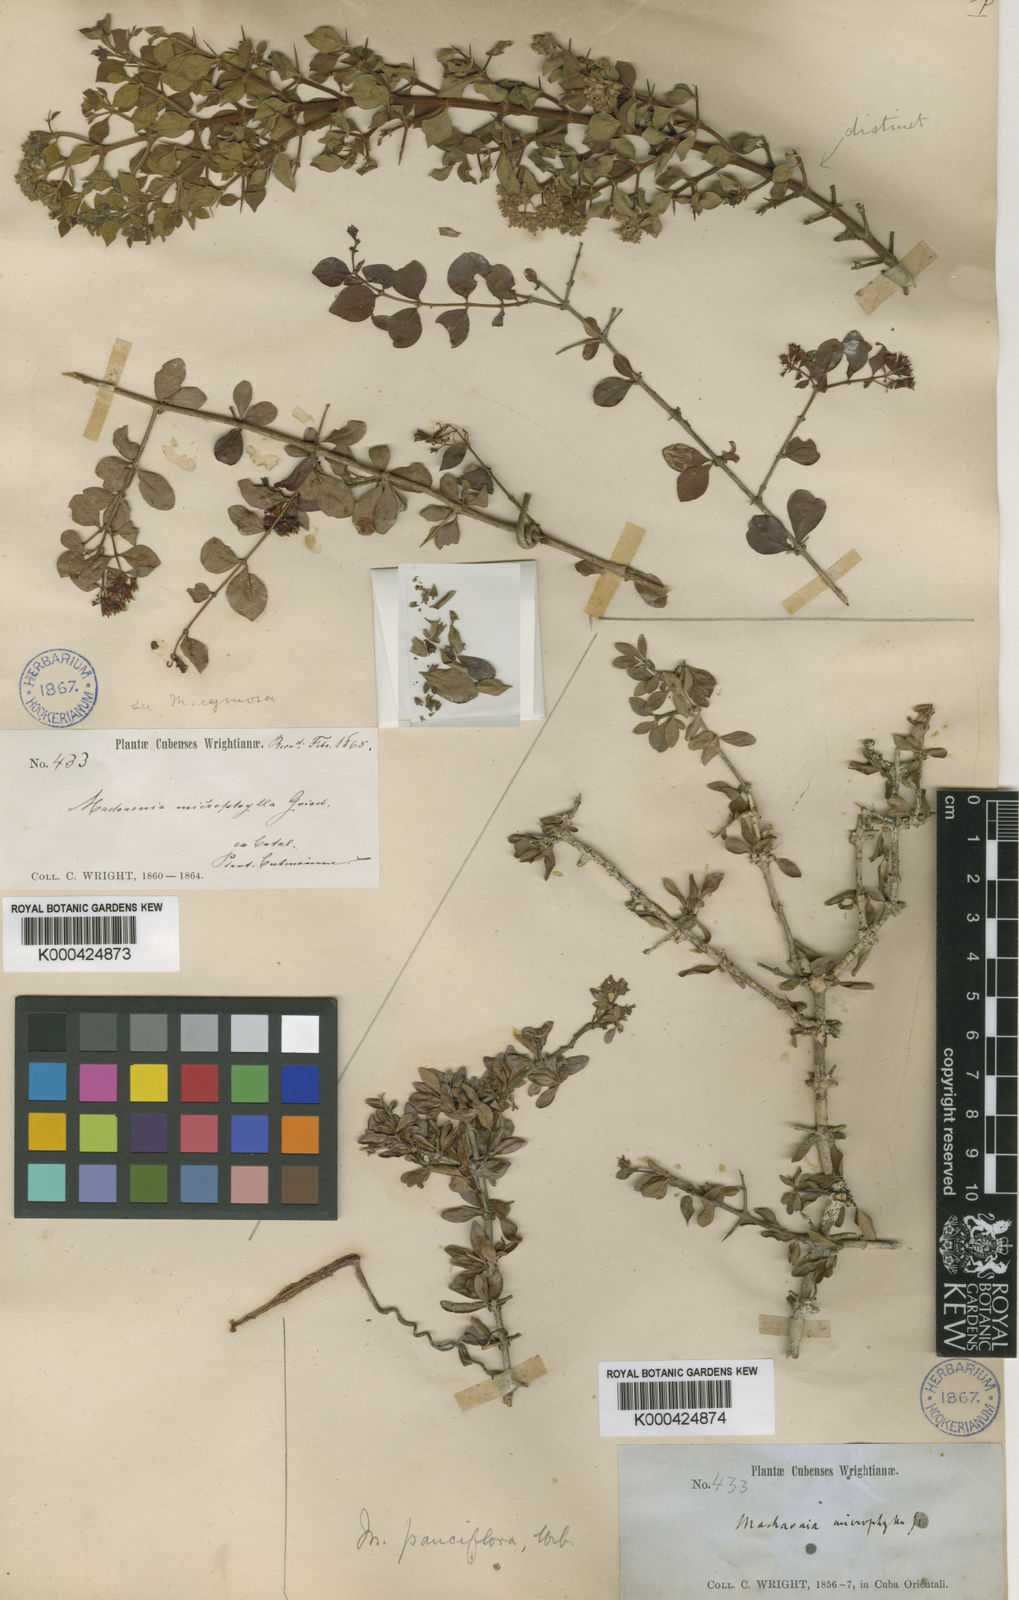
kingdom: Plantae
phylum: Tracheophyta
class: Magnoliopsida
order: Gentianales
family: Rubiaceae
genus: Machaonia
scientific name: Machaonia pauciflora
